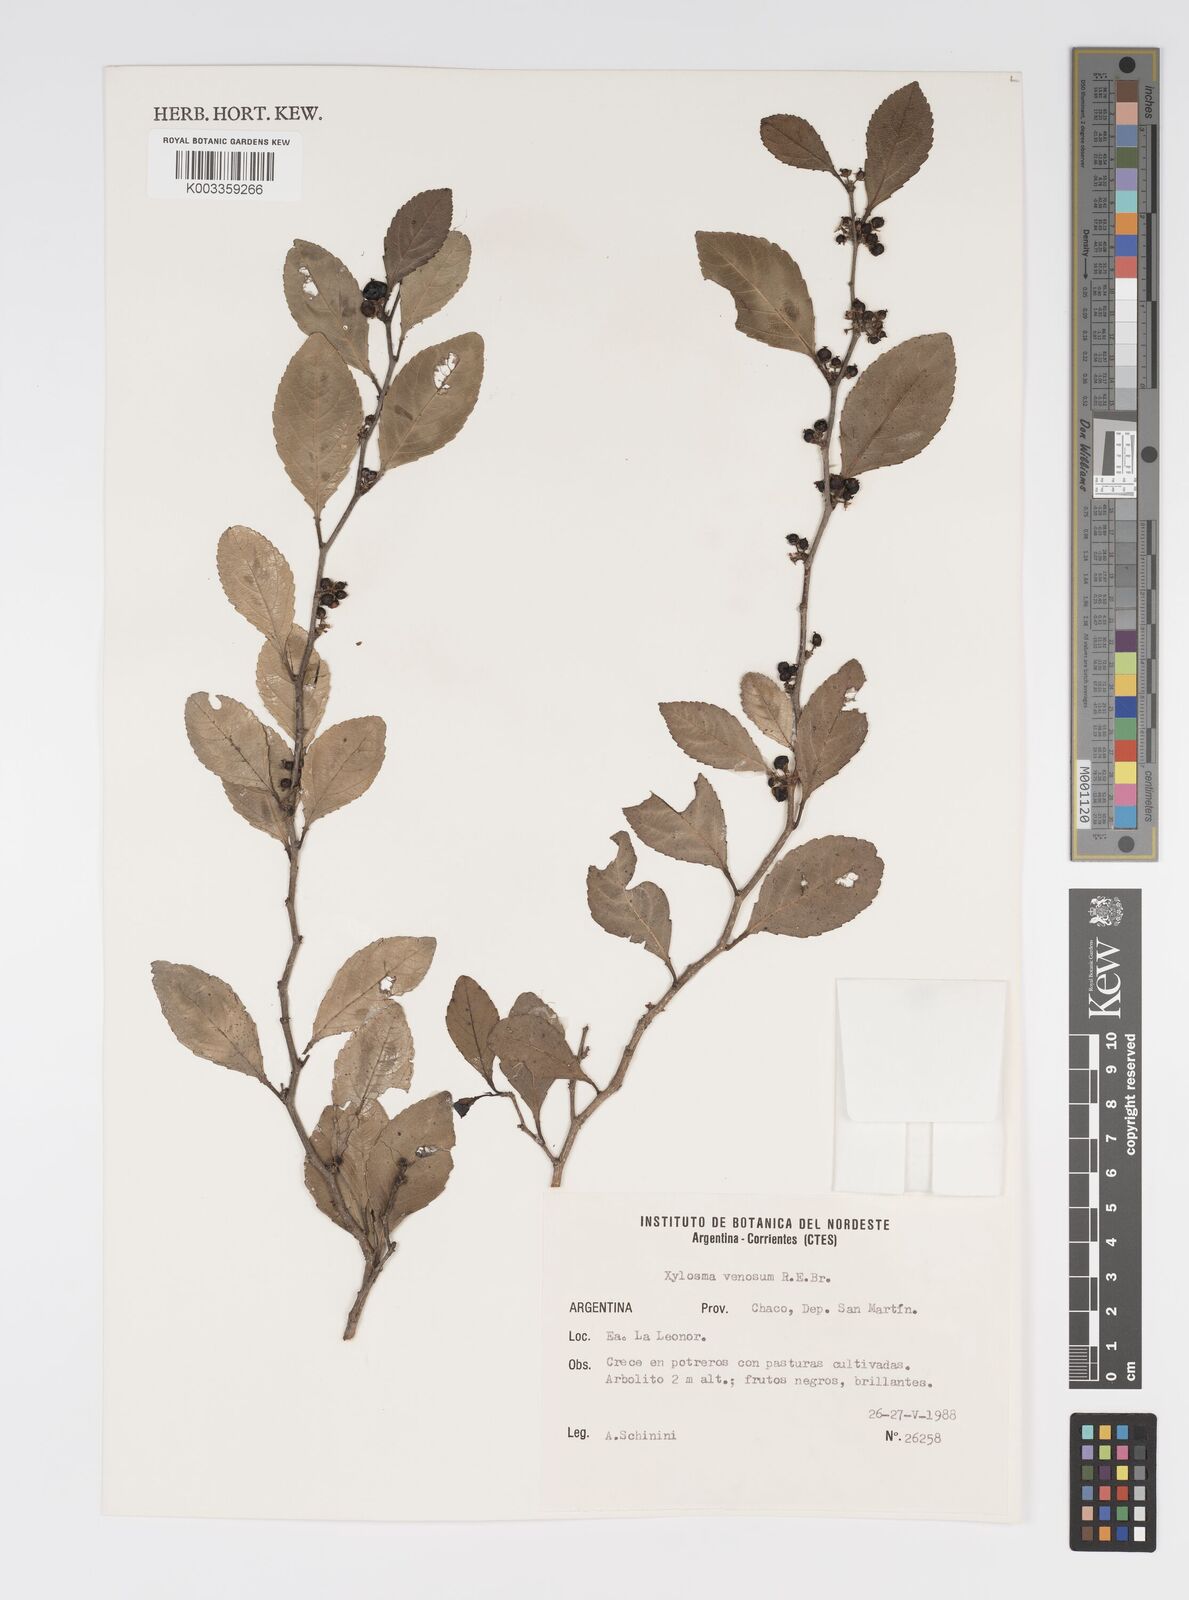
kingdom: Plantae
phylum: Tracheophyta
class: Magnoliopsida
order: Malpighiales
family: Salicaceae
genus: Xylosma
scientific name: Xylosma venosa
